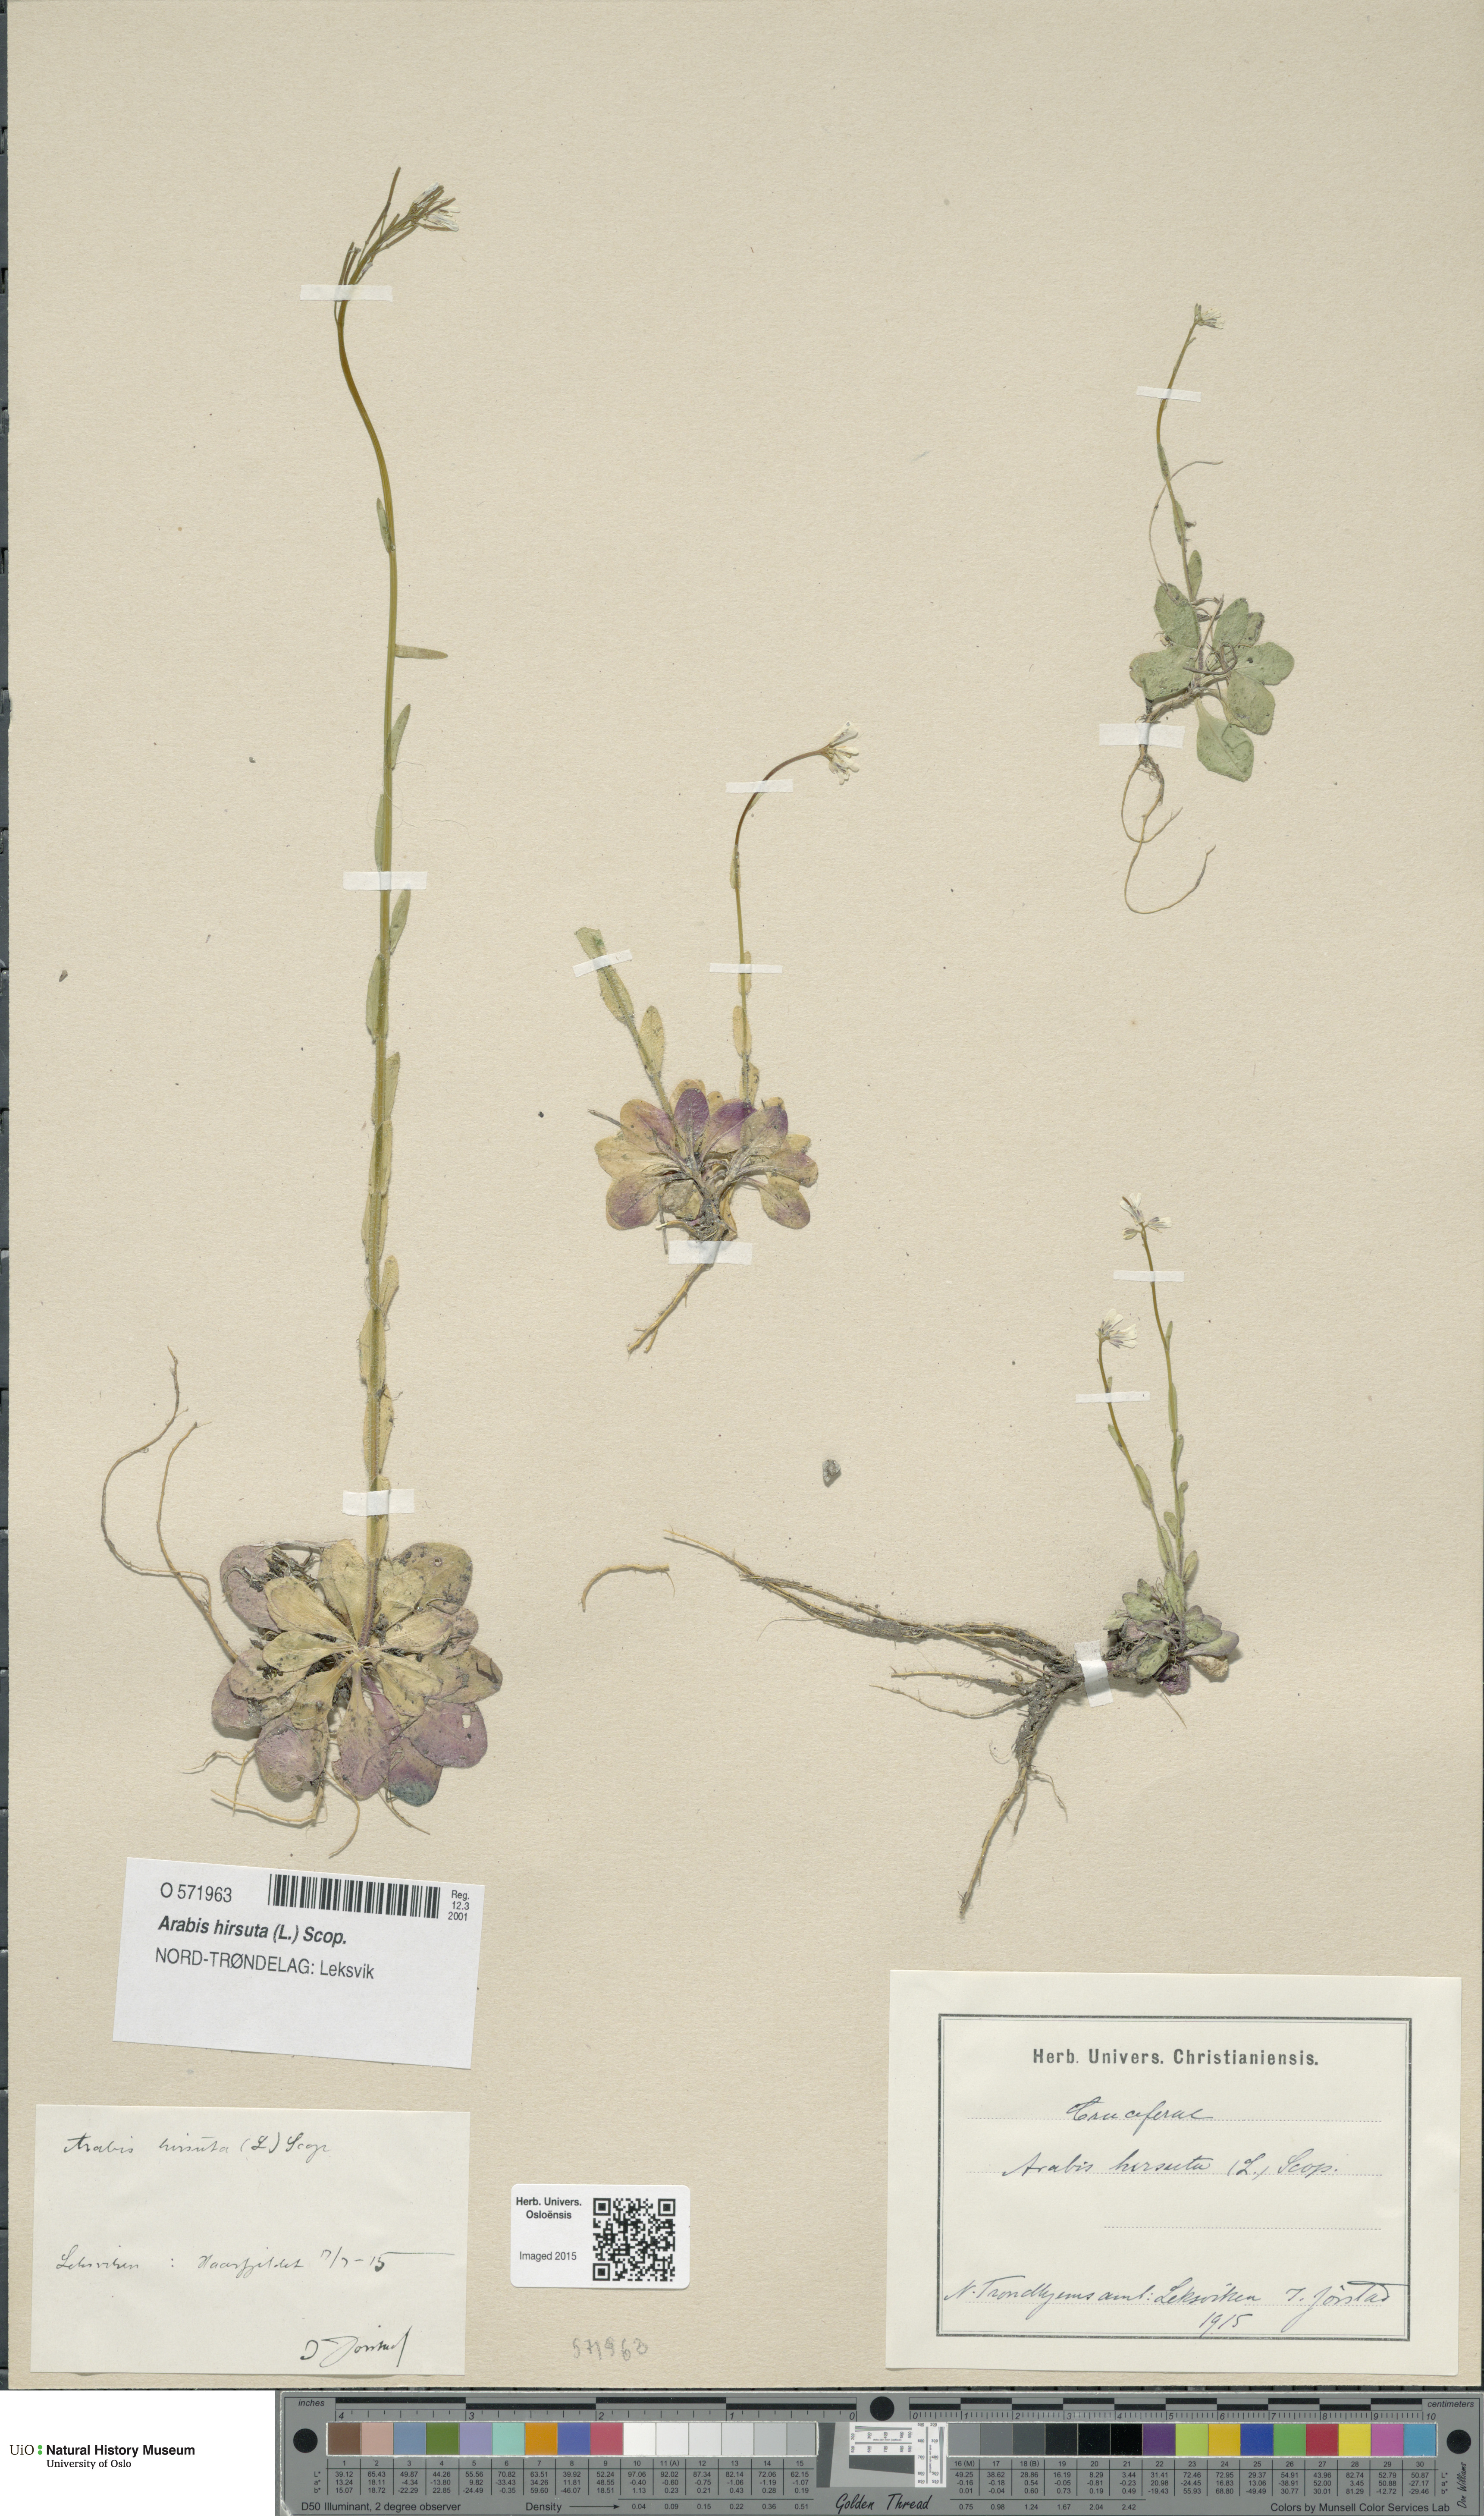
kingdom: Plantae
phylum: Tracheophyta
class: Magnoliopsida
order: Brassicales
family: Brassicaceae
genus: Arabis
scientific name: Arabis hirsuta
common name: Hairy rock-cress
